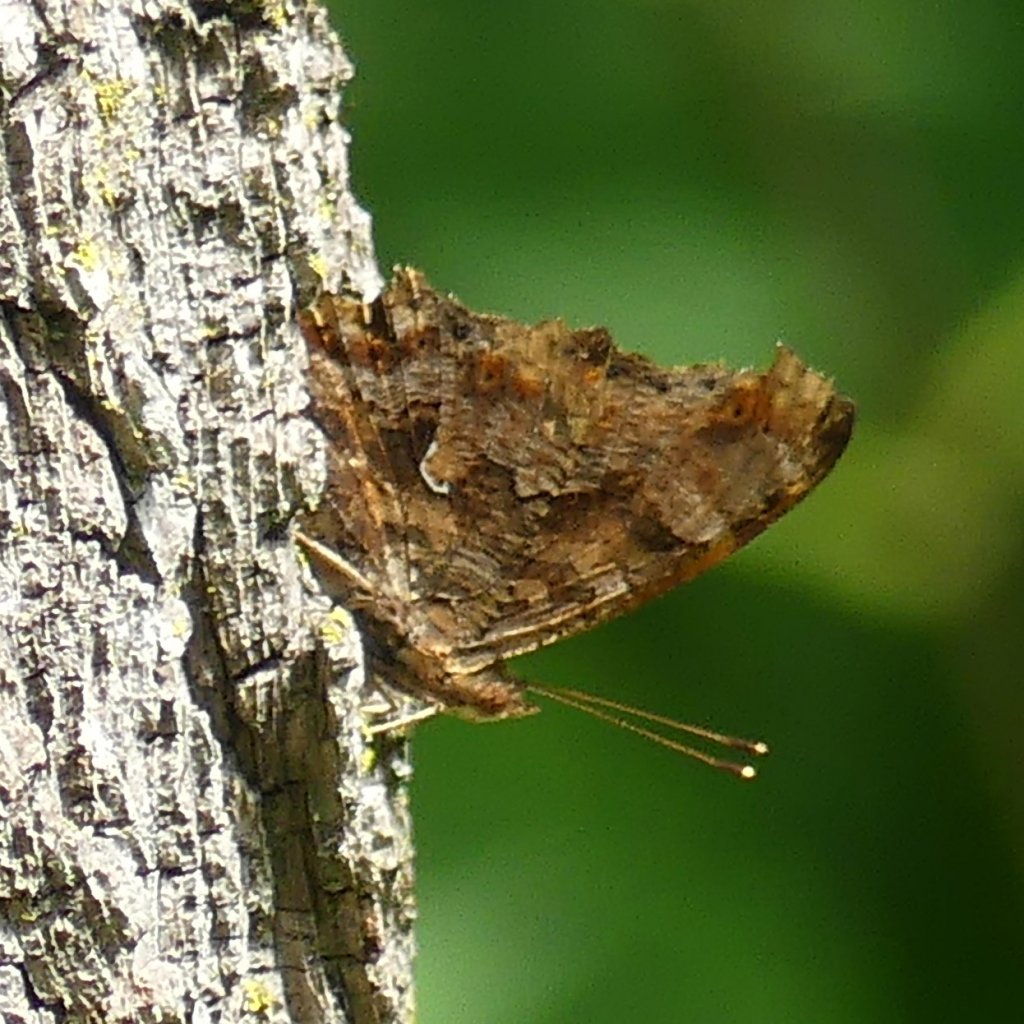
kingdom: Animalia
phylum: Arthropoda
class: Insecta
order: Lepidoptera
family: Nymphalidae
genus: Polygonia
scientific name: Polygonia comma
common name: Eastern Comma
